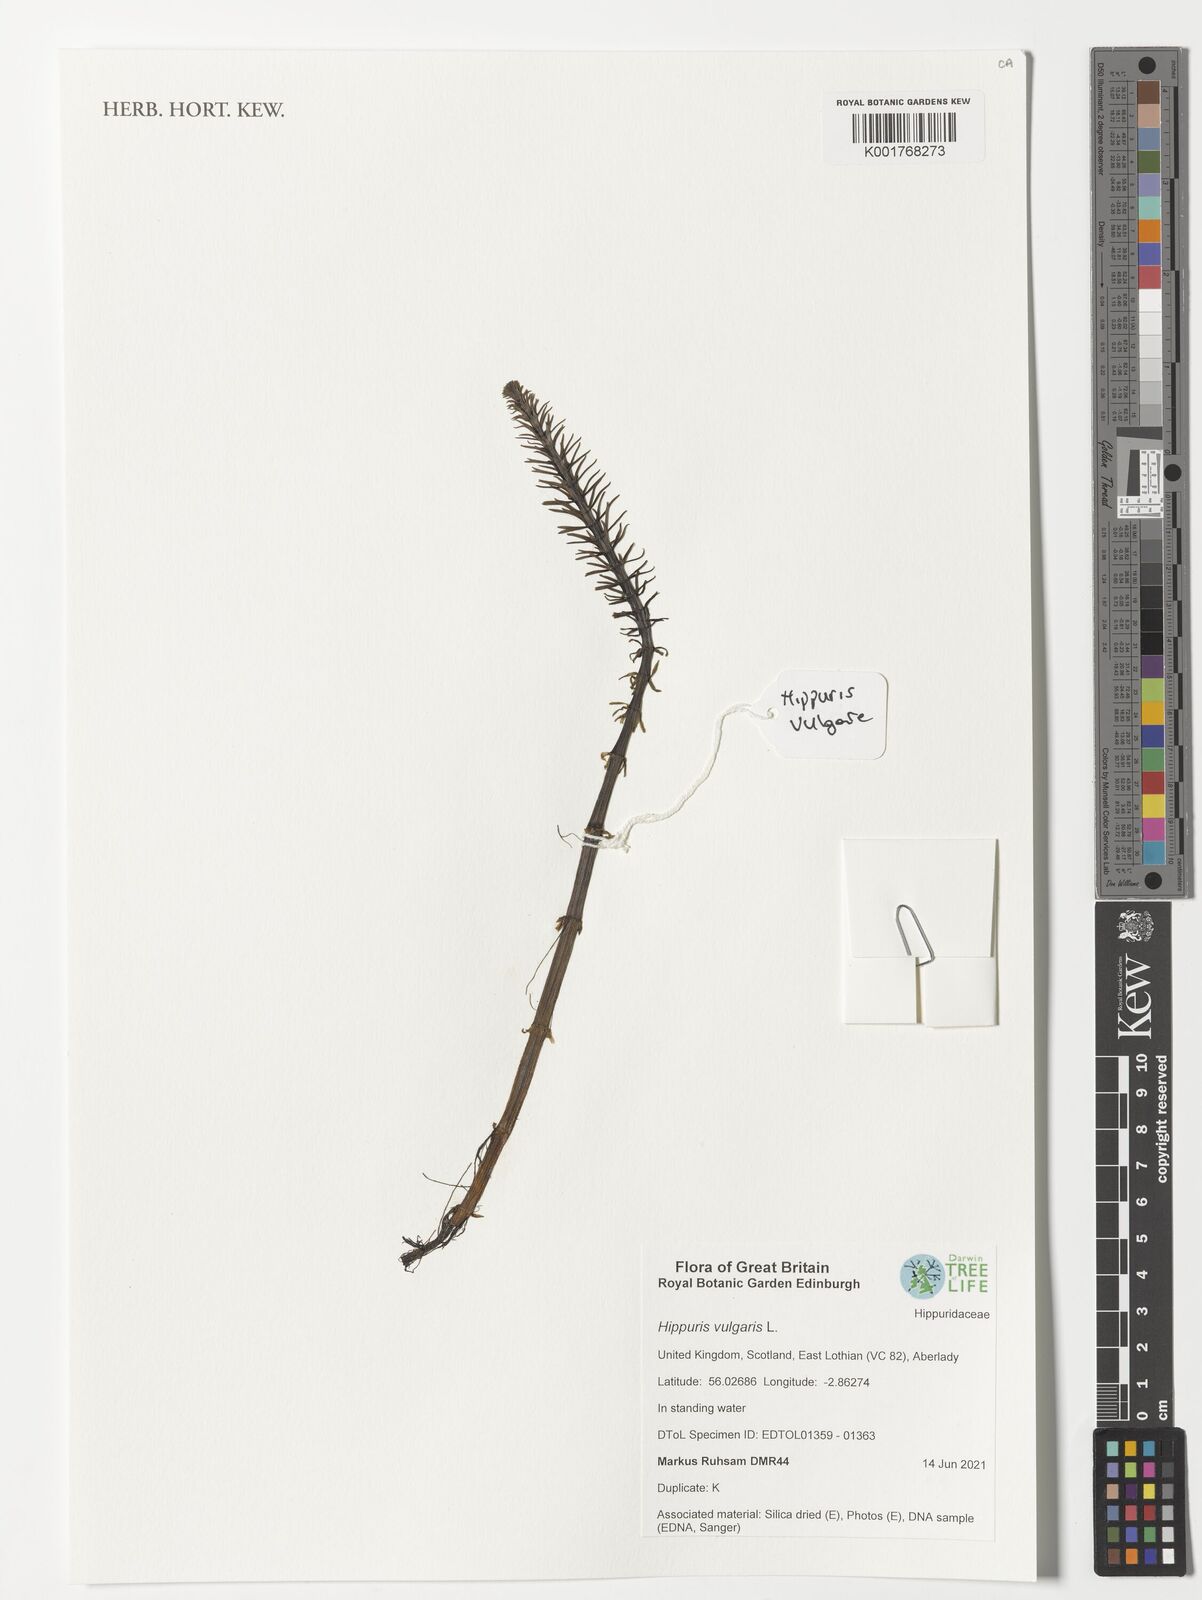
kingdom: Plantae
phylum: Tracheophyta
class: Magnoliopsida
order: Lamiales
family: Plantaginaceae
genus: Hippuris
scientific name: Hippuris vulgaris
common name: Mare's-tail
